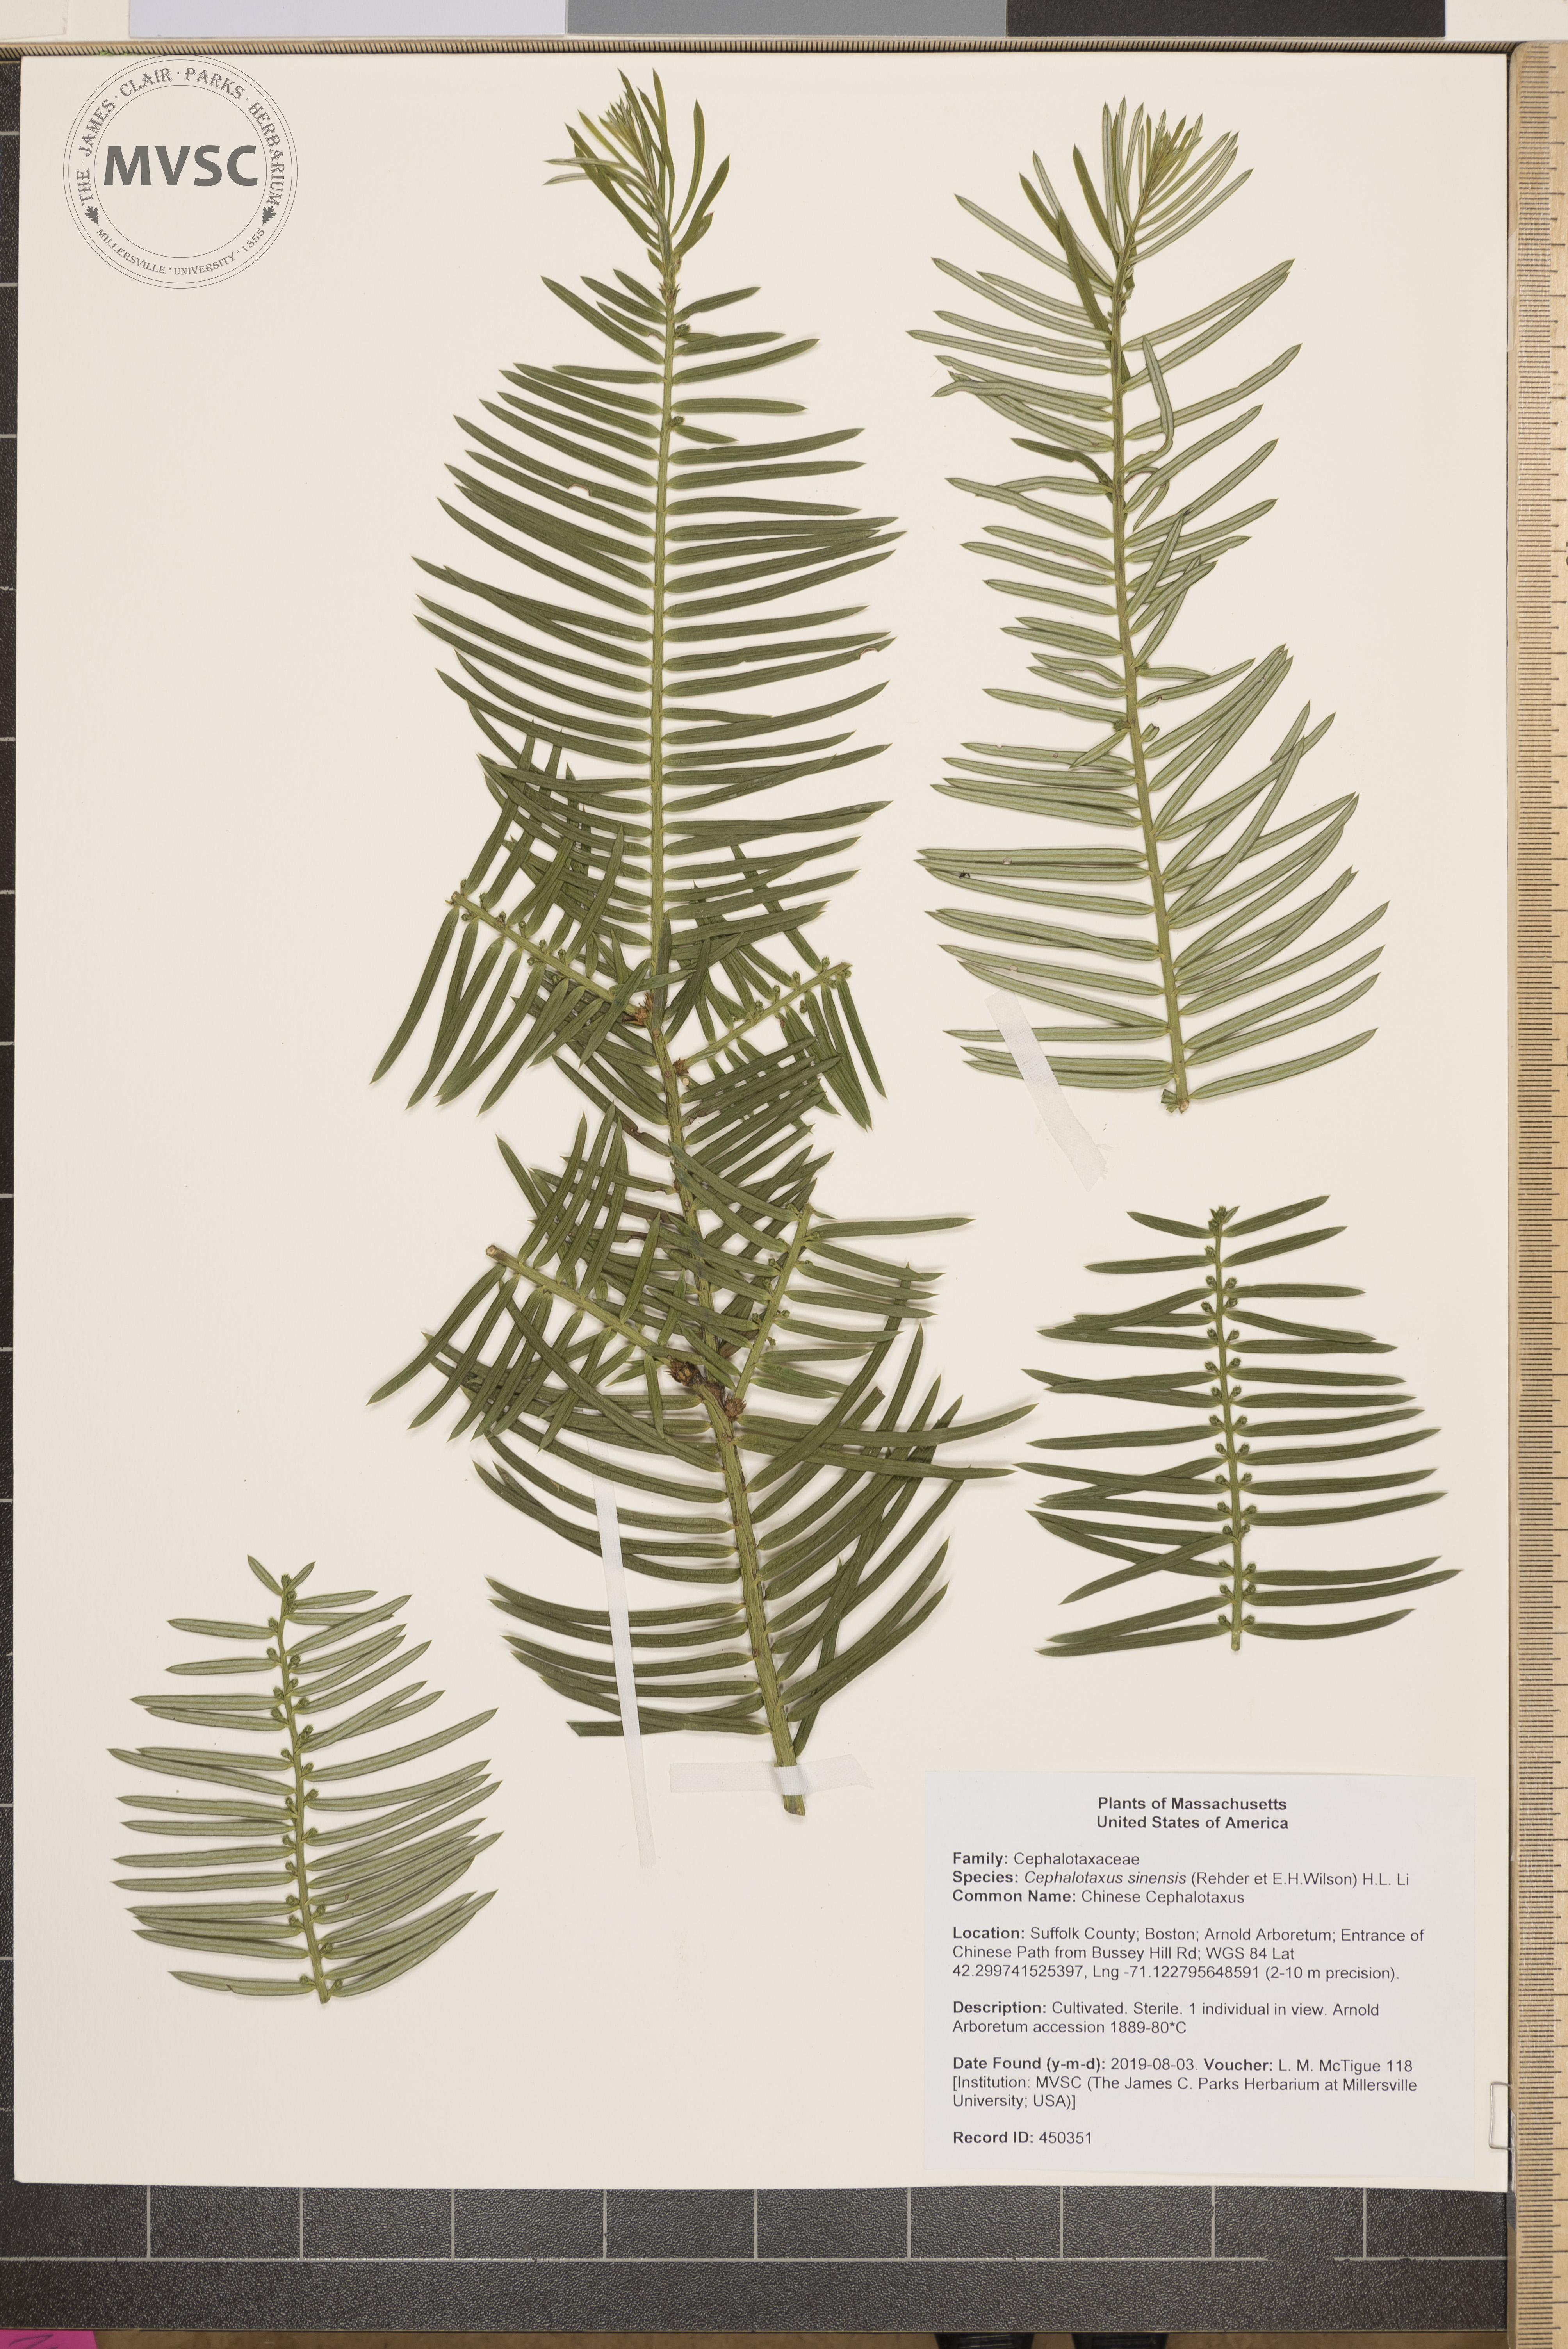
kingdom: Plantae
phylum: Tracheophyta
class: Pinopsida
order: Pinales
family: Cephalotaxaceae
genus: Cephalotaxus
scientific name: Cephalotaxus sinensis
